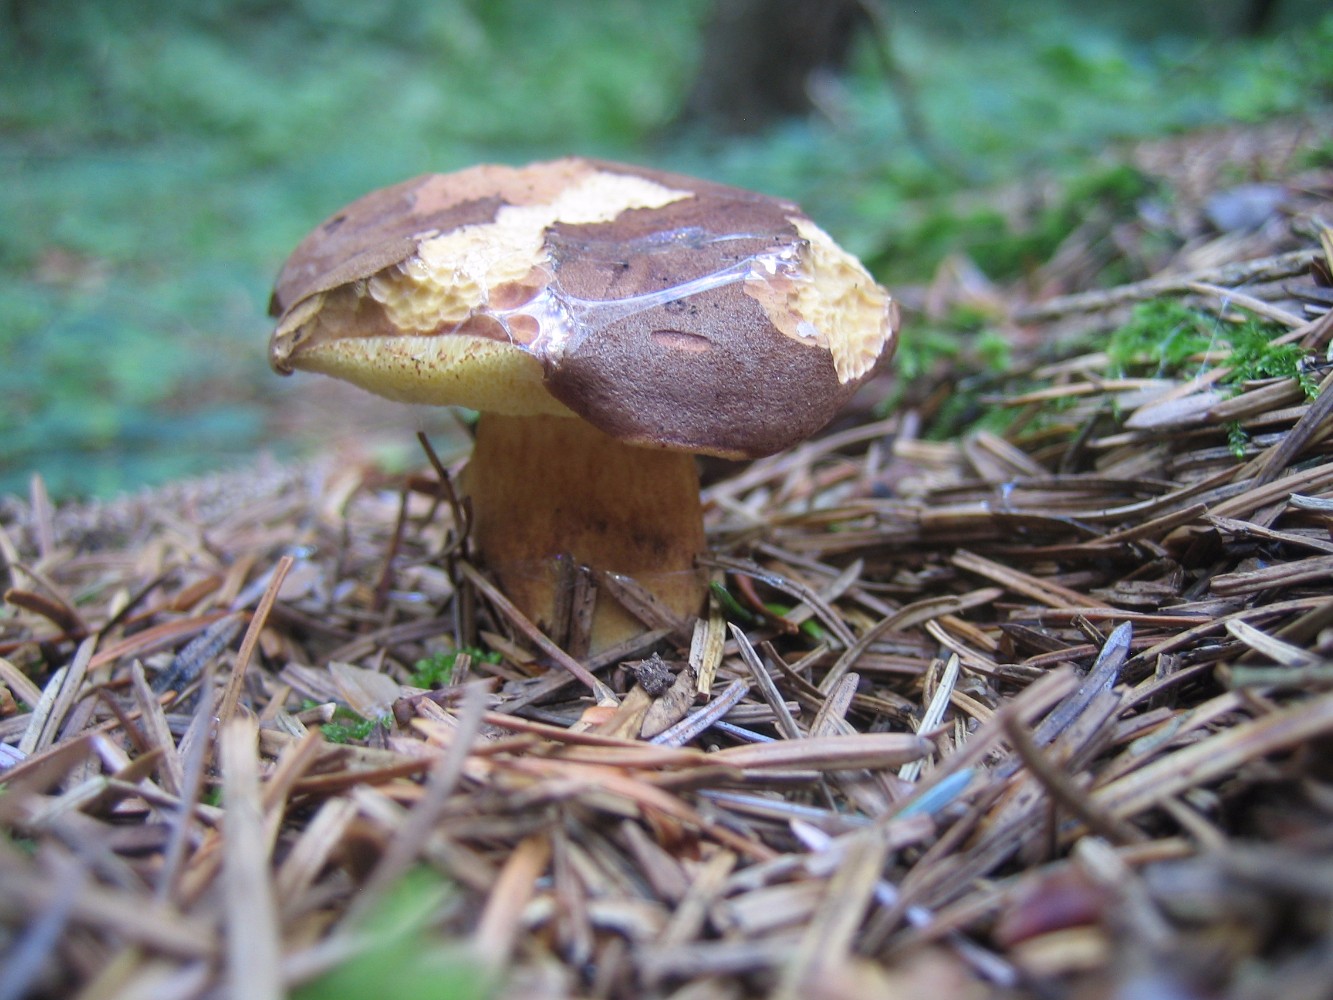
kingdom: Fungi
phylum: Basidiomycota
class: Agaricomycetes
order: Boletales
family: Boletaceae
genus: Imleria
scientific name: Imleria badia
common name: brunstokket rørhat
